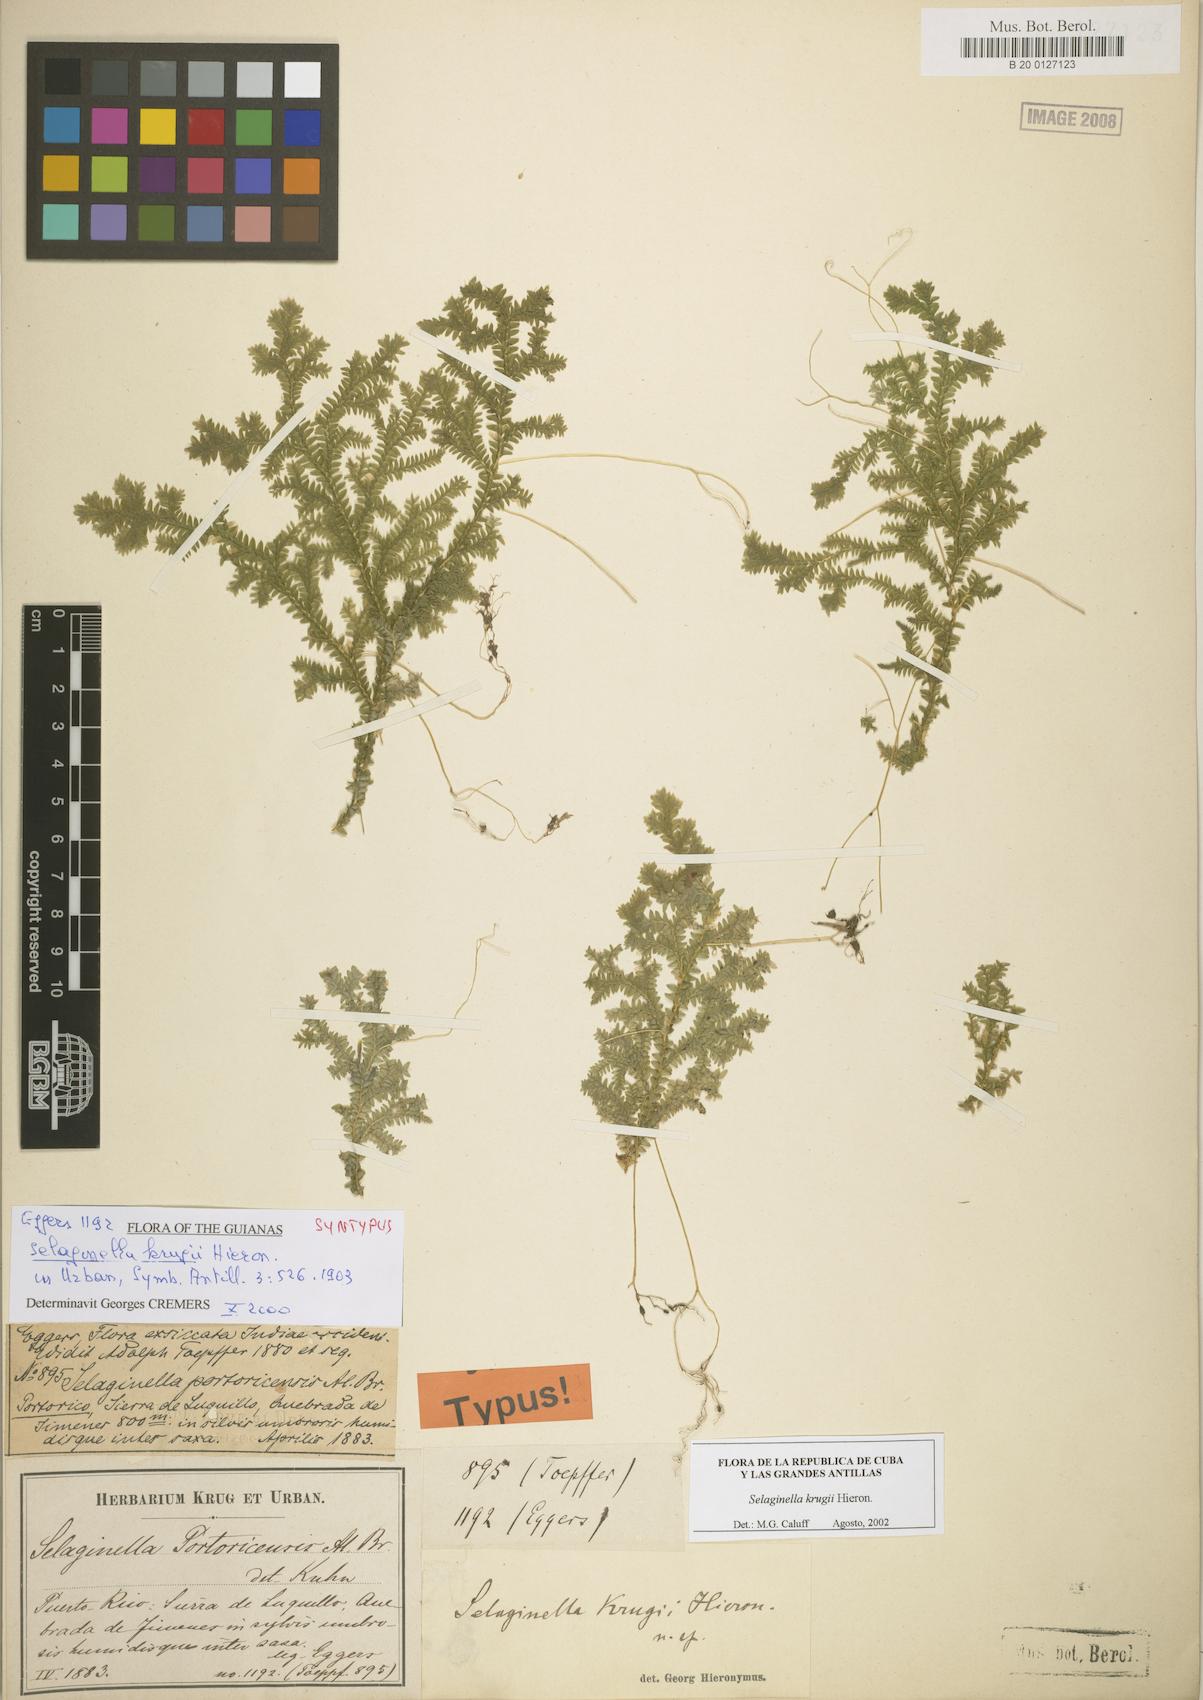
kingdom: Plantae
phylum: Tracheophyta
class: Lycopodiopsida
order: Selaginellales
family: Selaginellaceae
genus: Selaginella
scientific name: Selaginella krugii
